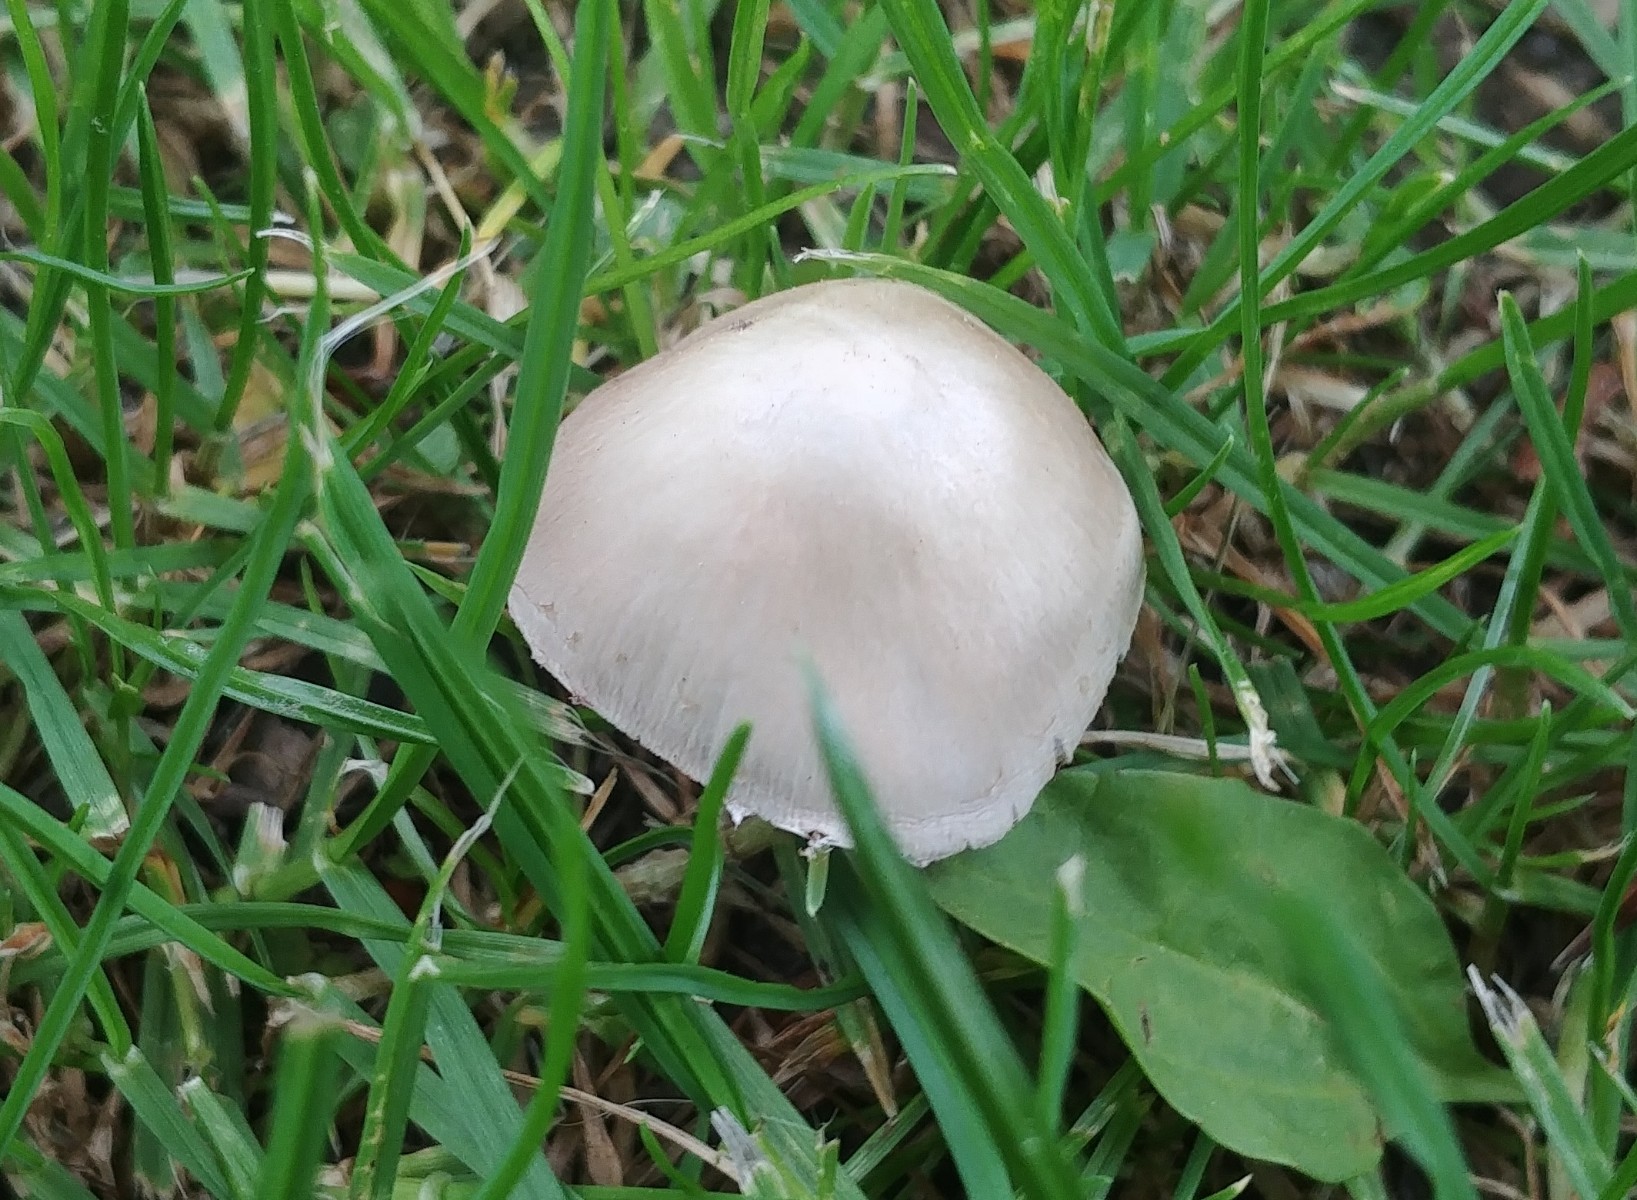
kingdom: Fungi
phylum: Basidiomycota
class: Agaricomycetes
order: Agaricales
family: Psathyrellaceae
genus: Candolleomyces
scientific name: Candolleomyces candolleanus
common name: Candolles mørkhat
